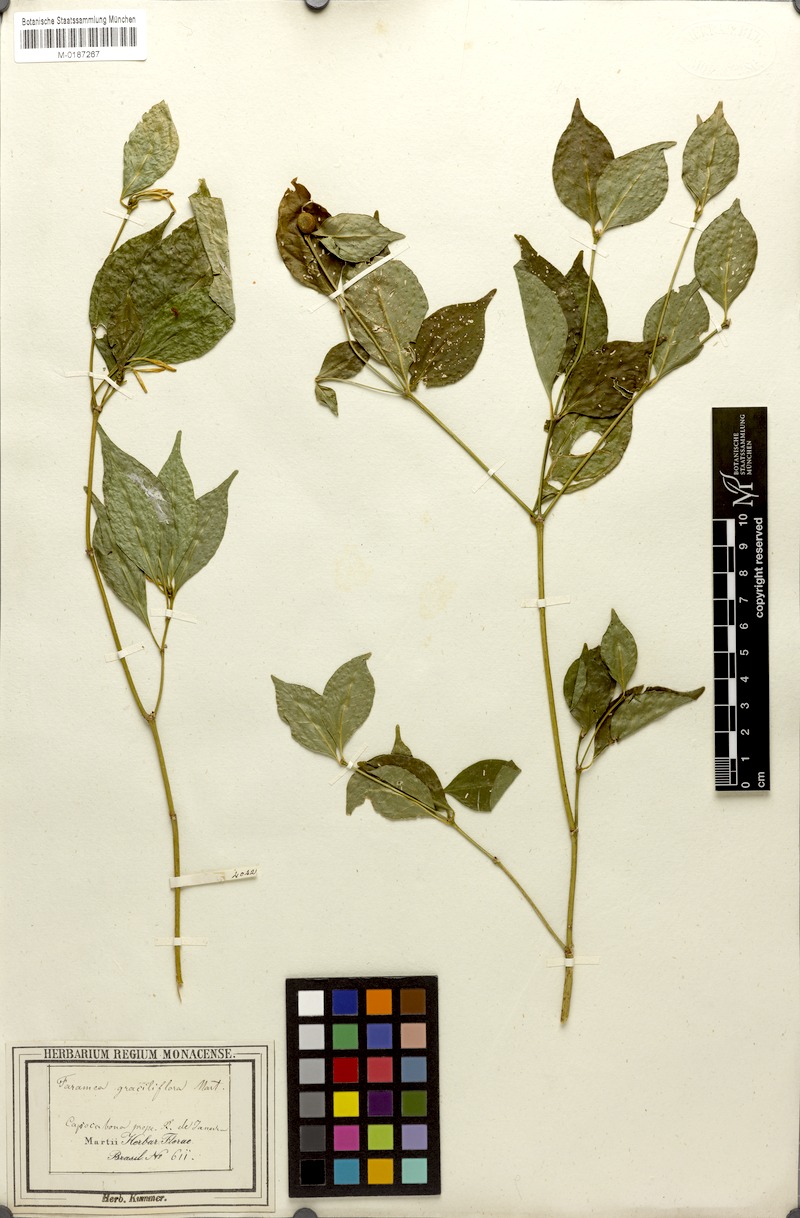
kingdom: Plantae
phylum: Tracheophyta
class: Magnoliopsida
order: Gentianales
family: Rubiaceae
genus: Coussarea
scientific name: Coussarea graciliflora
